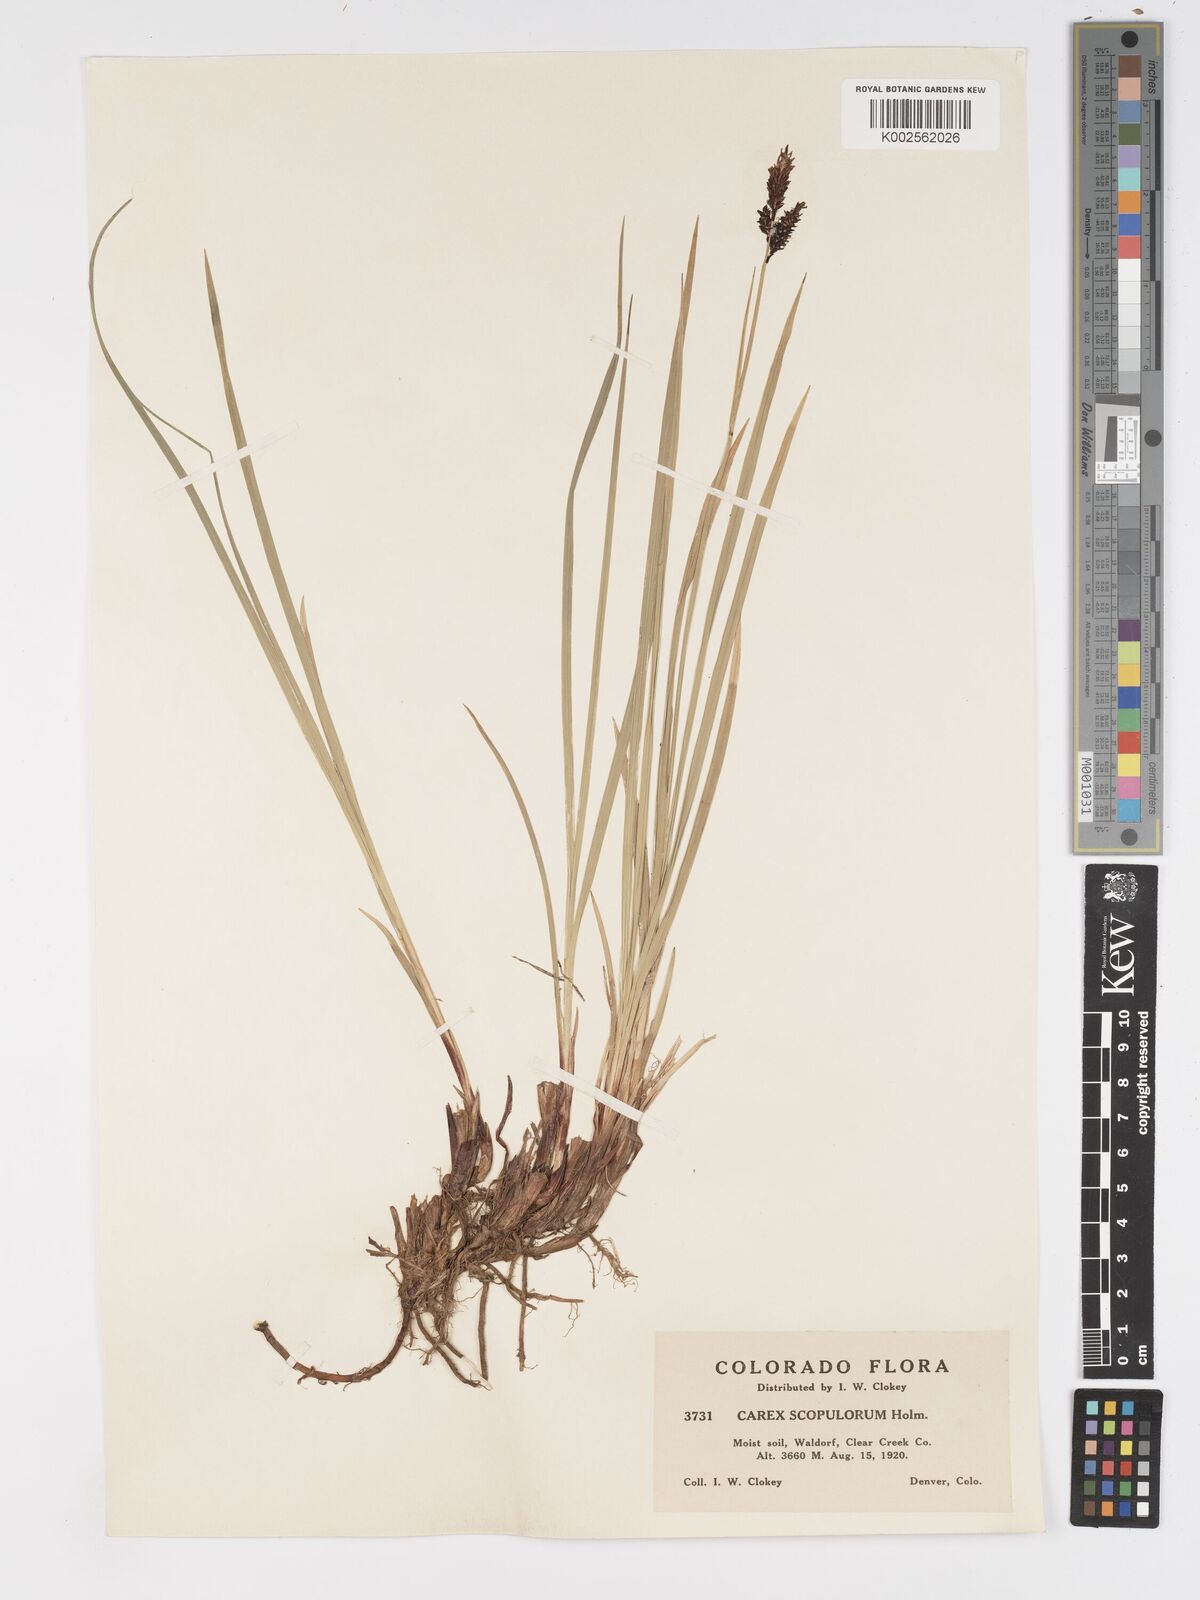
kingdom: Plantae
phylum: Tracheophyta
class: Liliopsida
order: Poales
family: Cyperaceae
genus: Carex
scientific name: Carex scopulorum
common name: Holm's rocky mountain sedge
